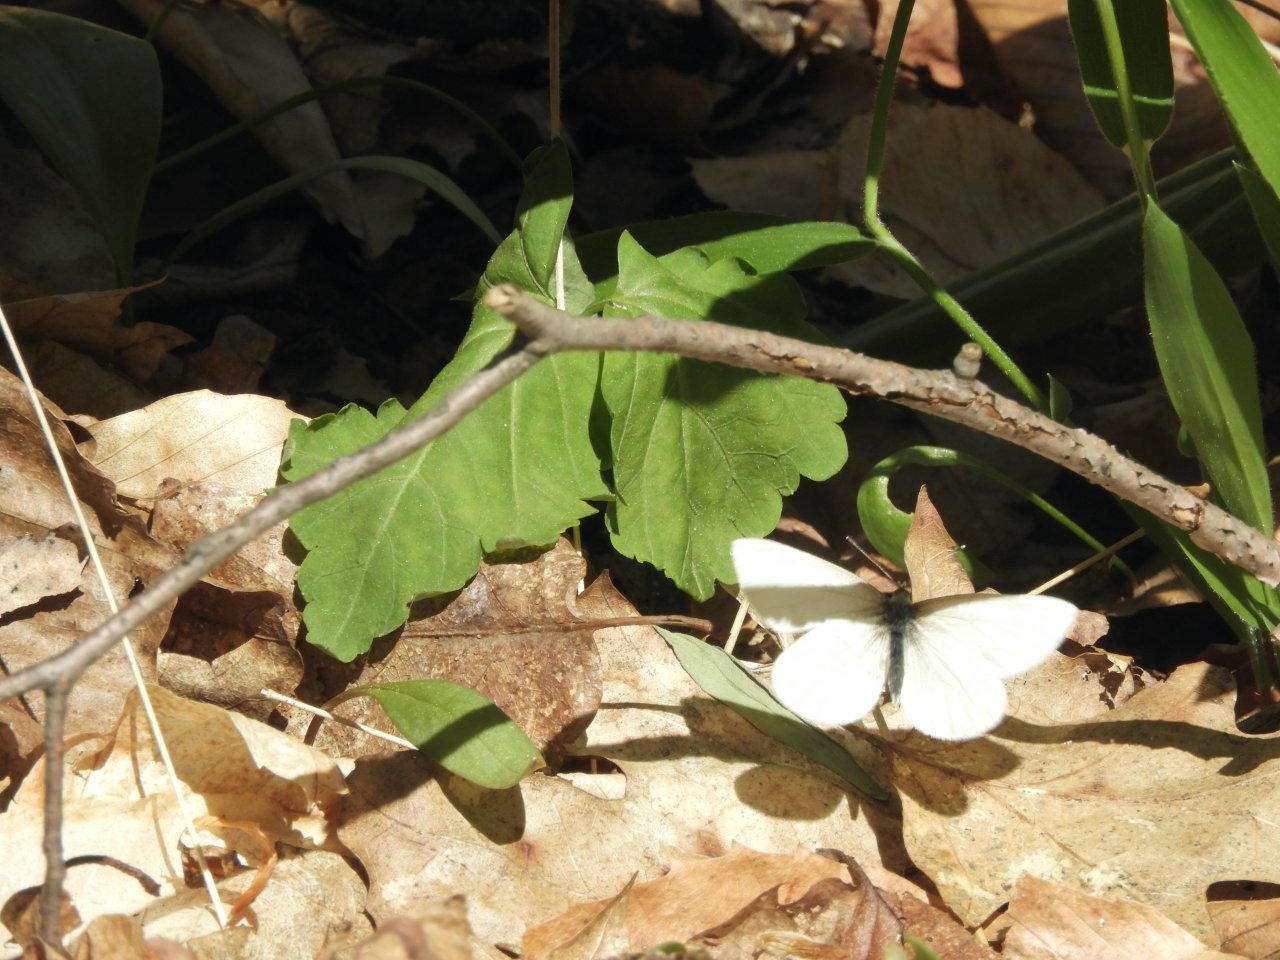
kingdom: Animalia
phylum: Arthropoda
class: Insecta
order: Lepidoptera
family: Pieridae
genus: Pieris
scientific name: Pieris virginiensis
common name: West Virginia White
